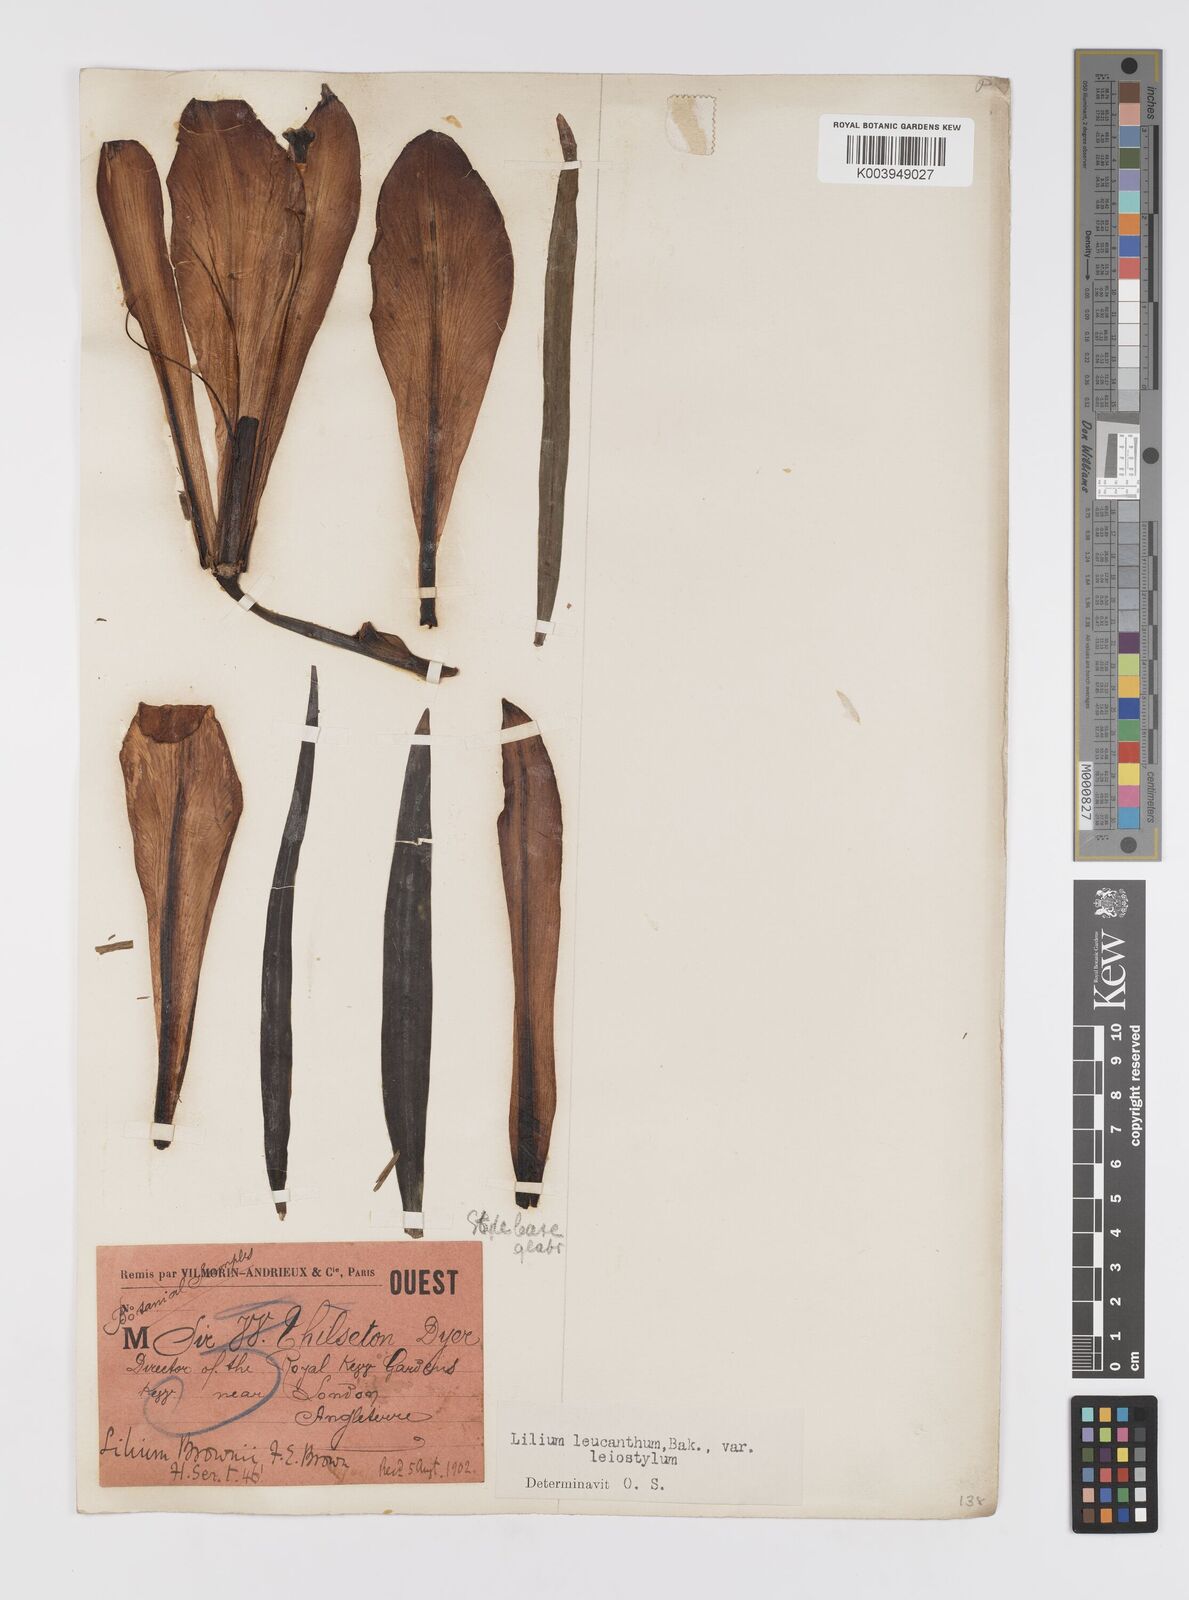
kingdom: Plantae
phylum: Tracheophyta
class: Liliopsida
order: Liliales
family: Liliaceae
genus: Lilium
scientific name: Lilium sargentiae
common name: Sargent lily
